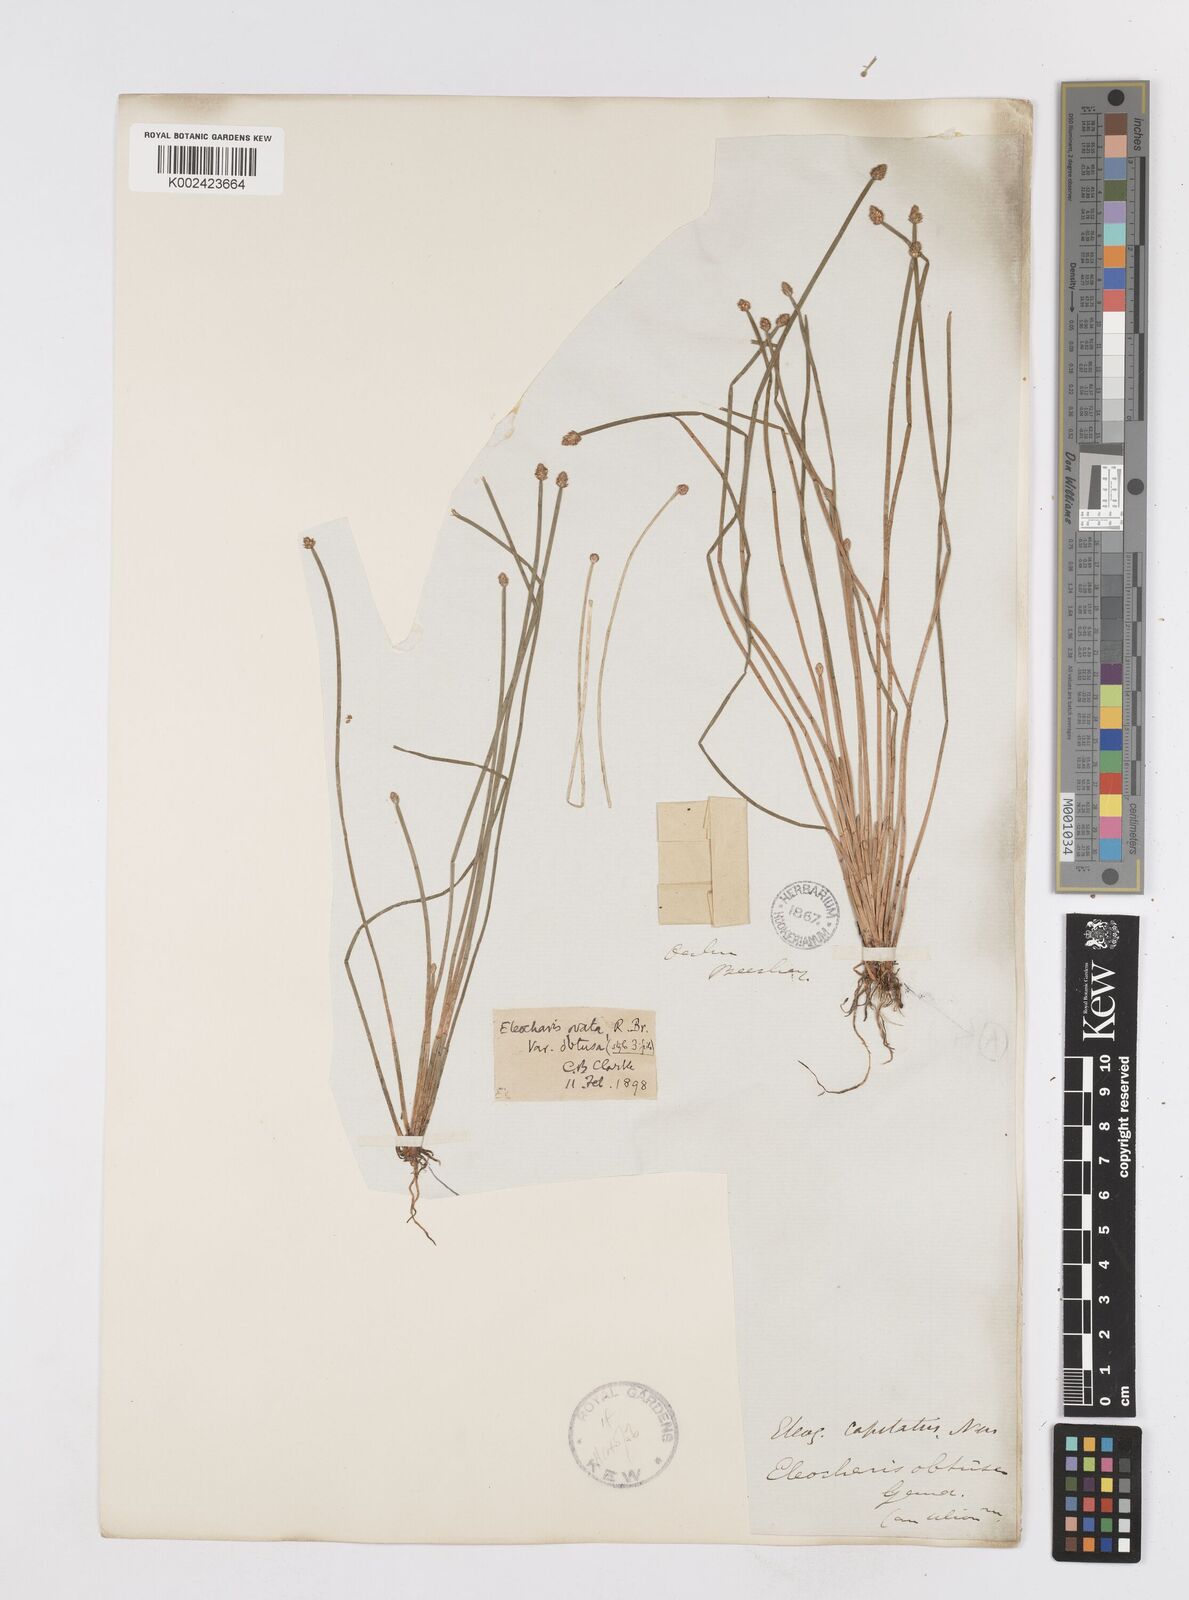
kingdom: Plantae
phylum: Tracheophyta
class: Liliopsida
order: Poales
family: Cyperaceae
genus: Eleocharis
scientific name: Eleocharis philippinensis
